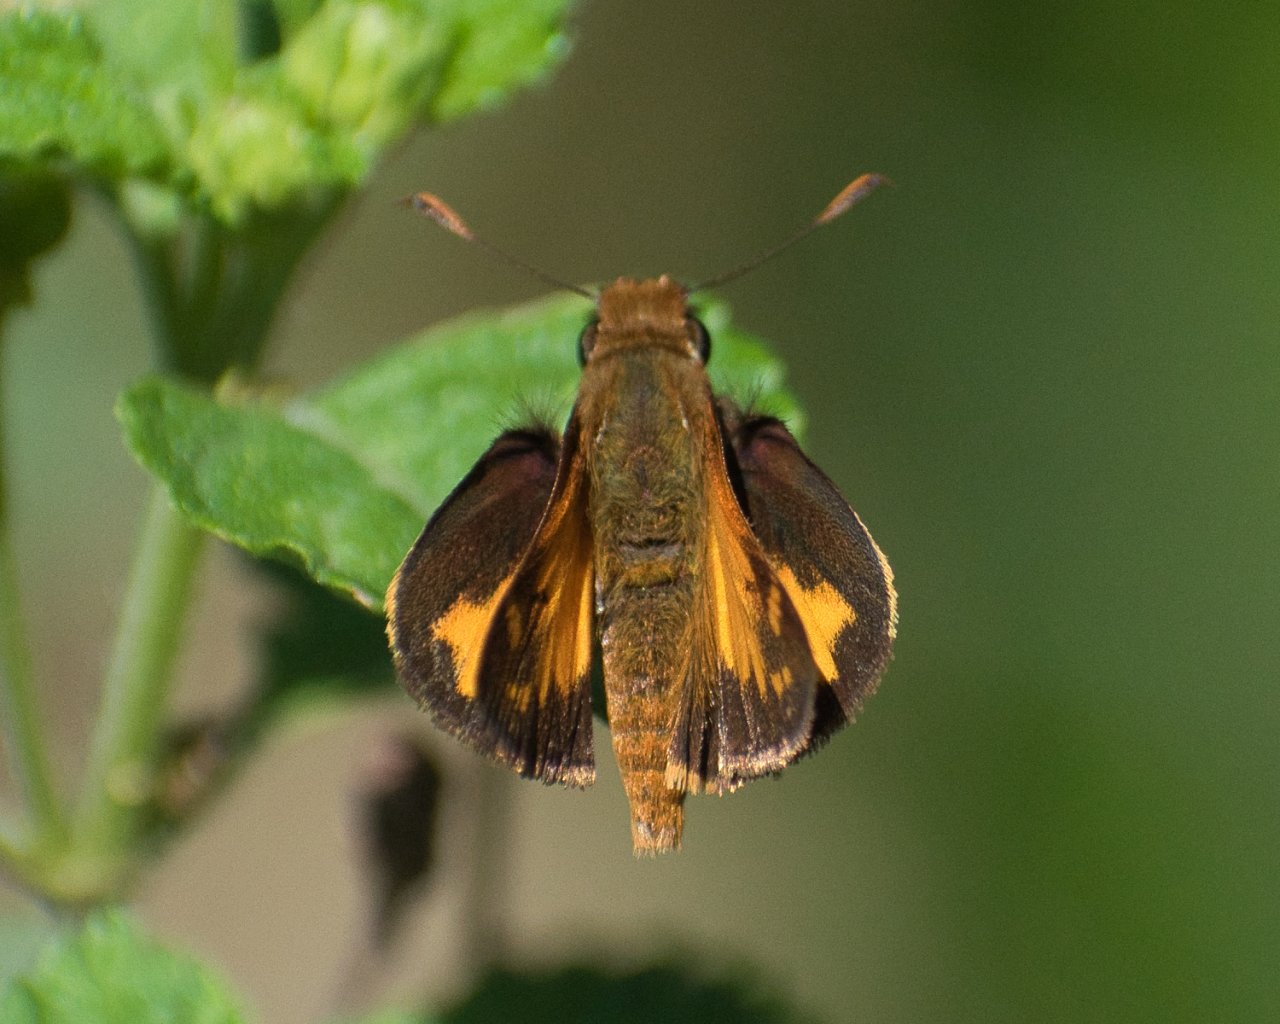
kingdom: Animalia
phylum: Arthropoda
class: Insecta
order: Lepidoptera
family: Hesperiidae
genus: Lon
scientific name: Lon zabulon
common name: Zabulon Skipper
